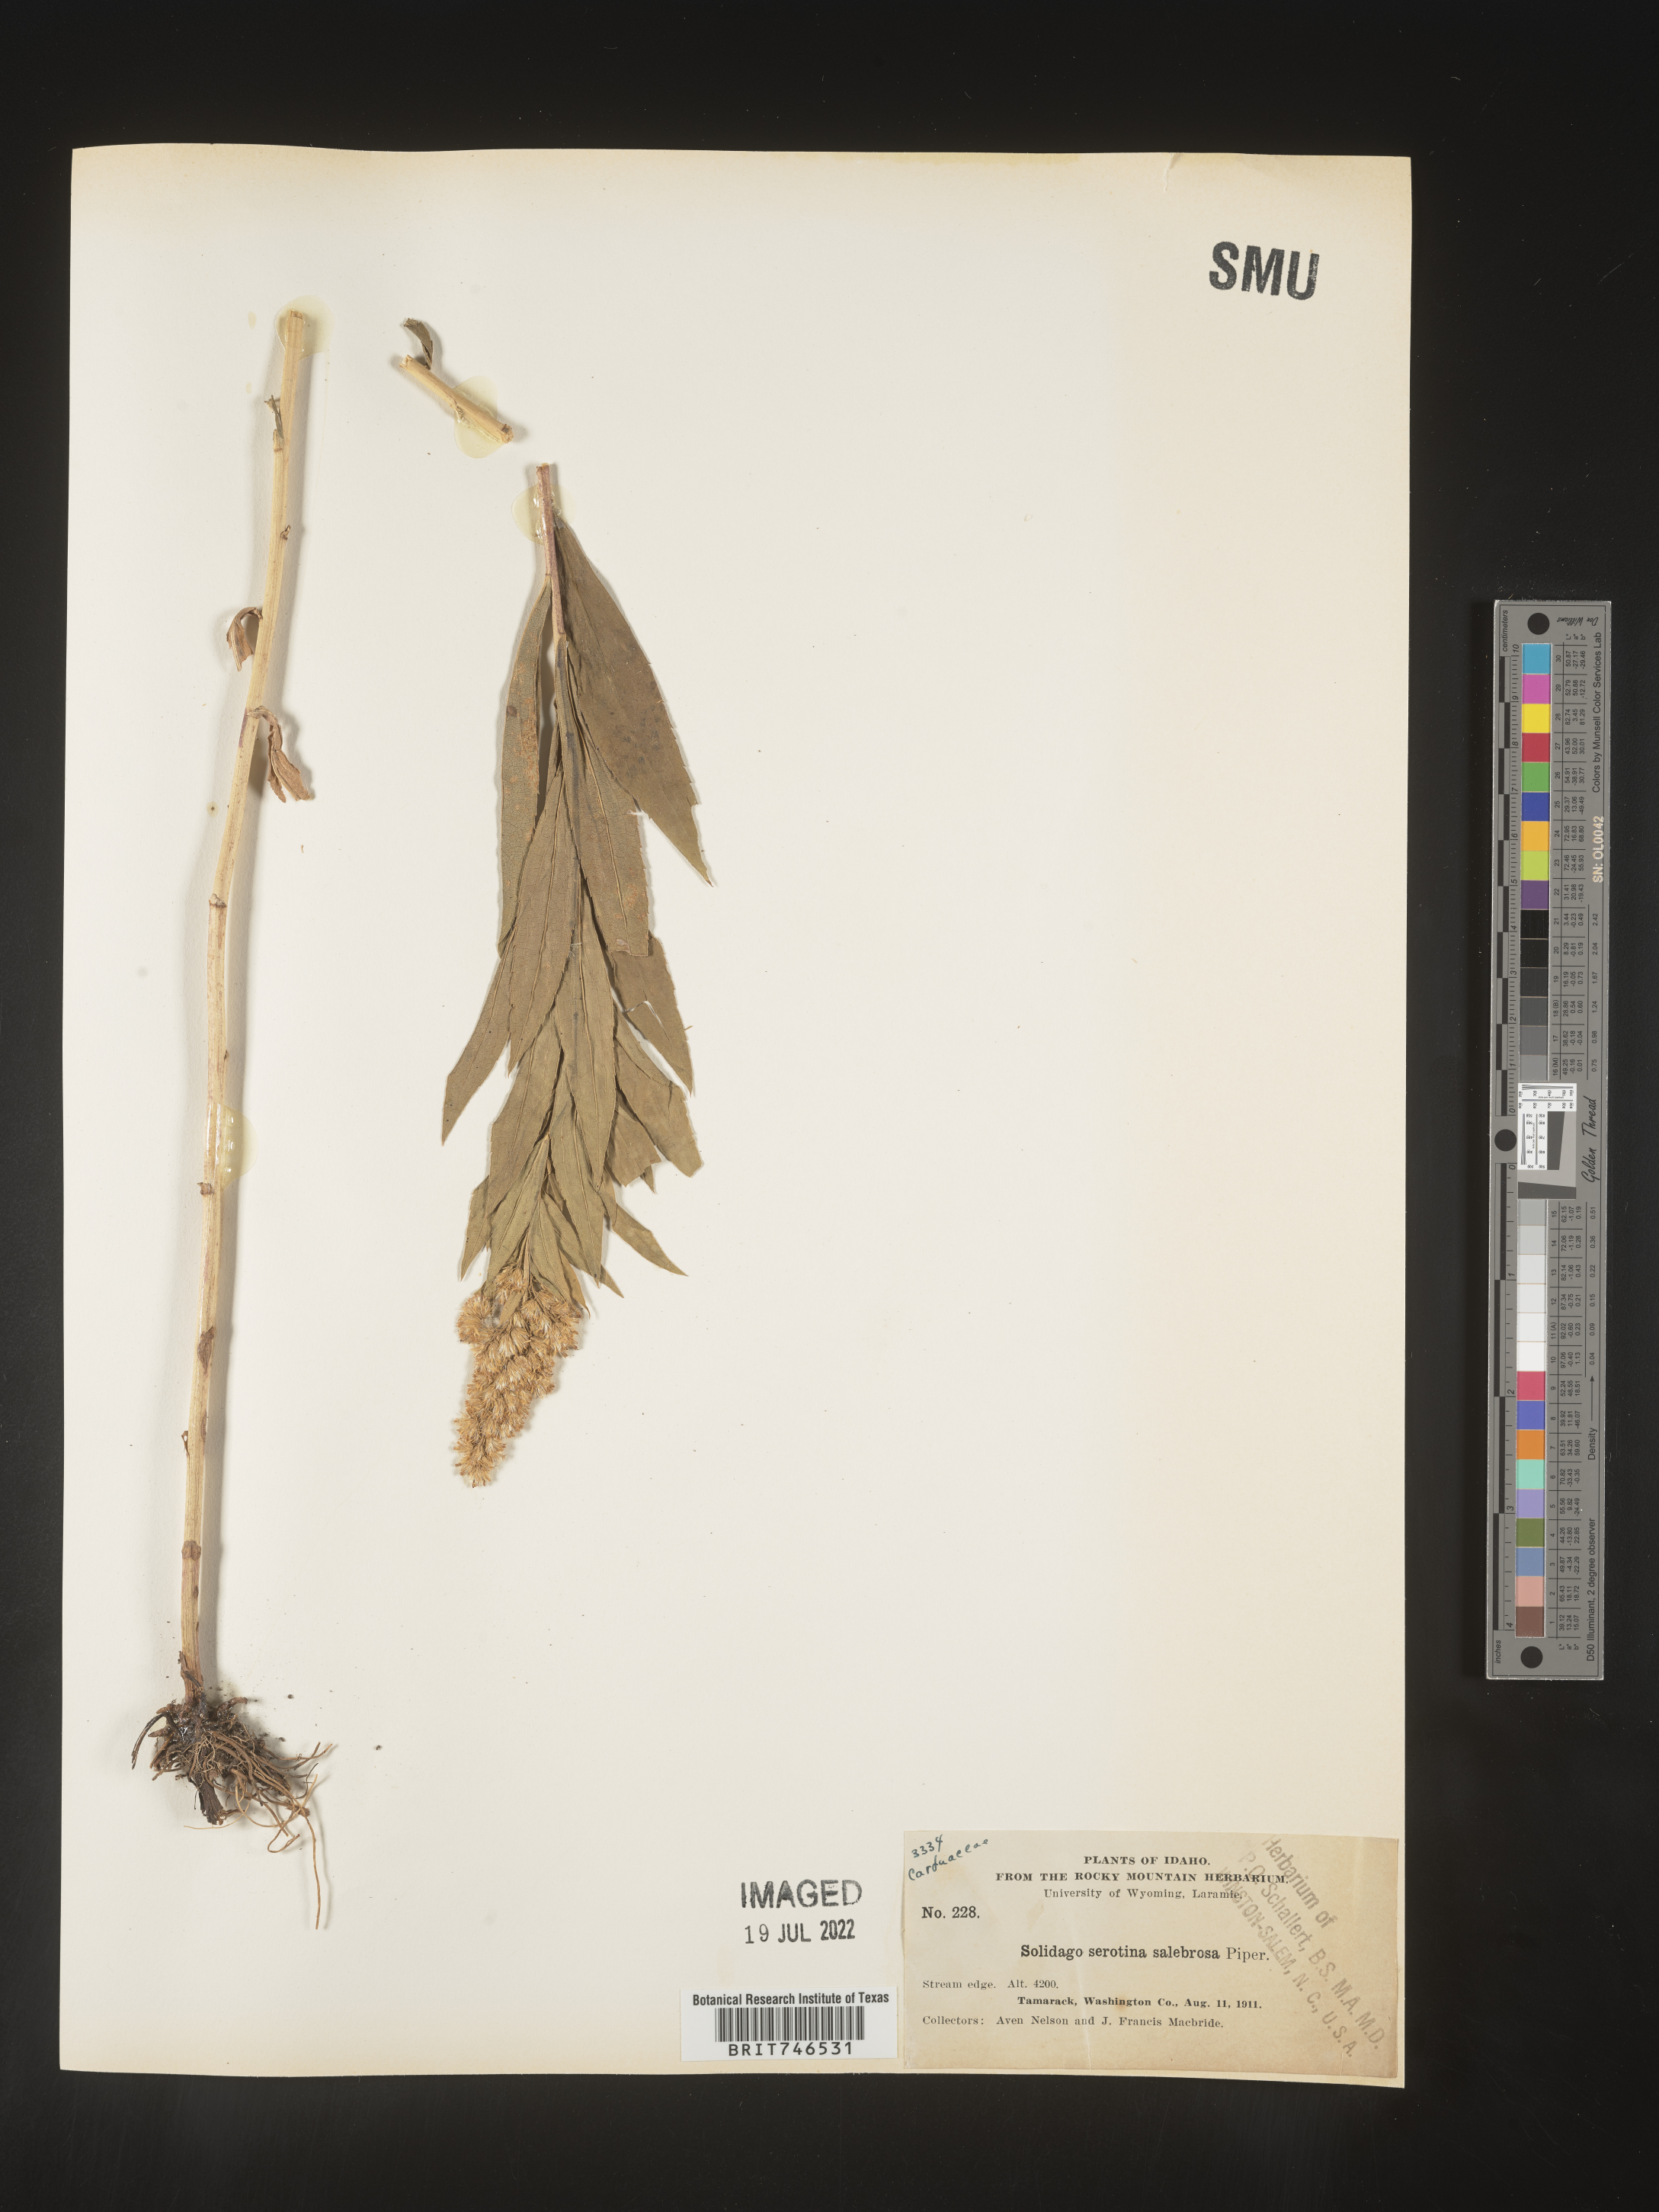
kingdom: Plantae
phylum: Tracheophyta
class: Magnoliopsida
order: Asterales
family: Asteraceae
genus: Solidago
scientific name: Solidago gigantea
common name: Giant goldenrod
